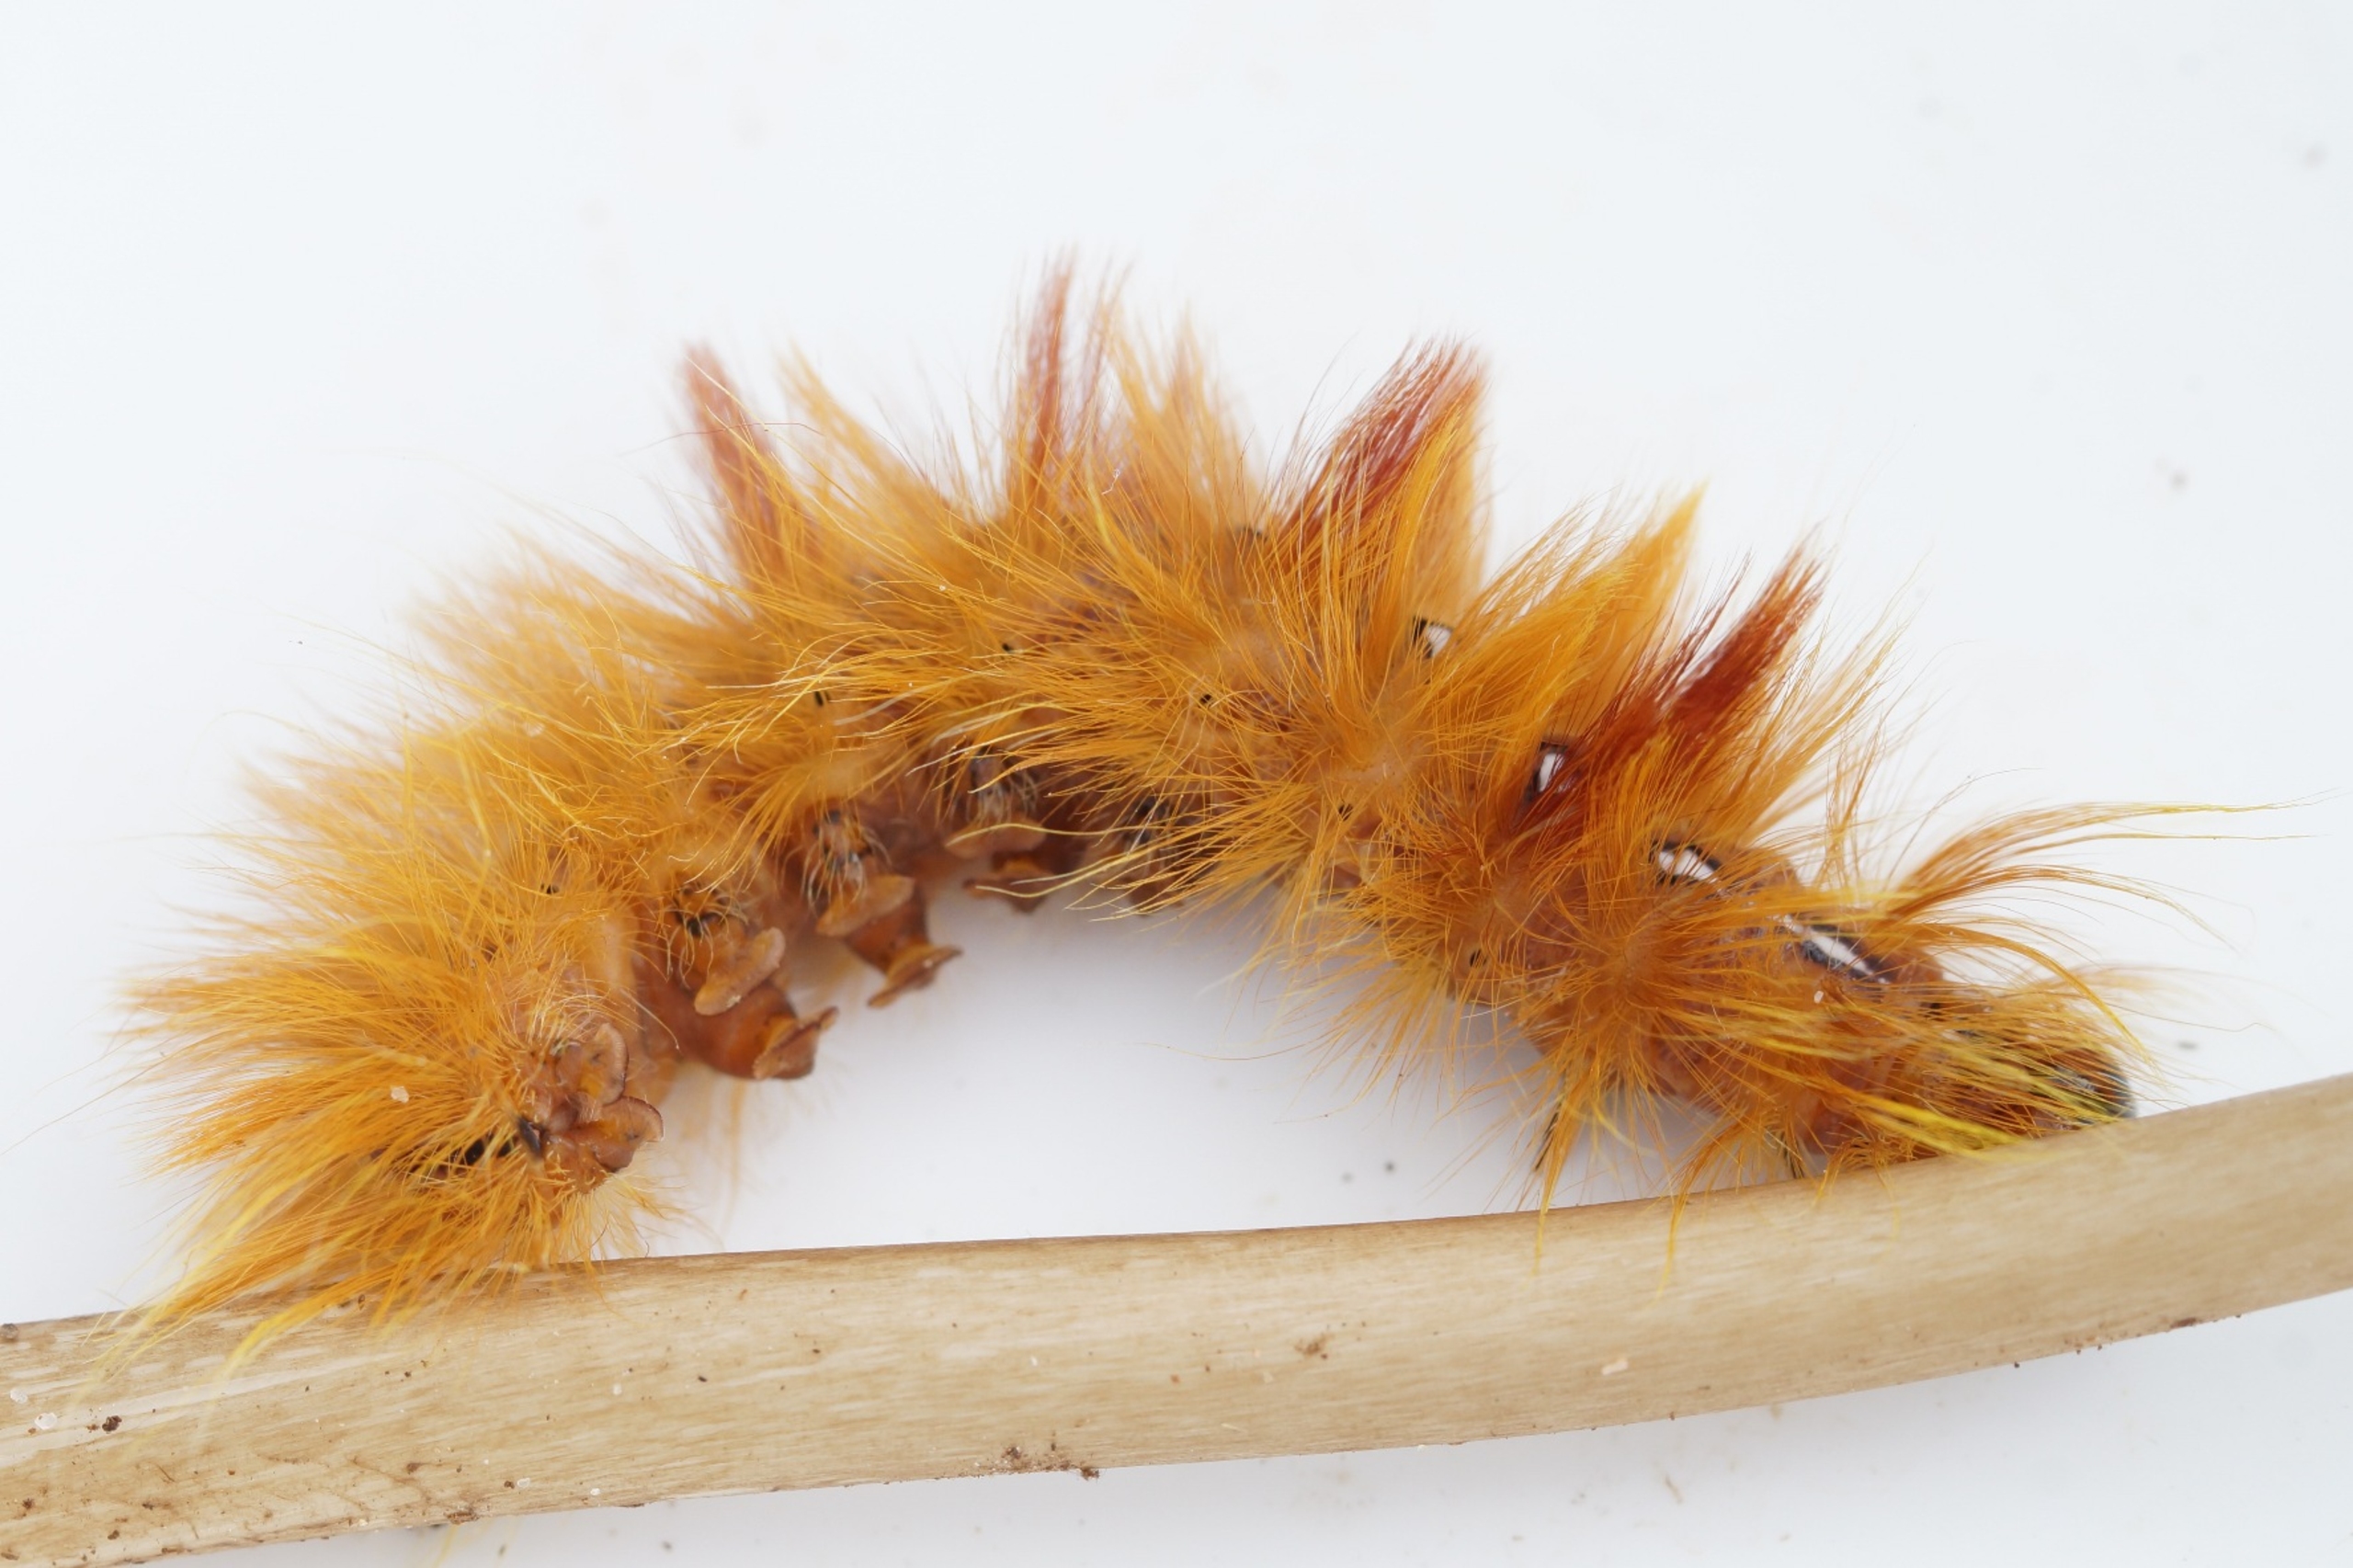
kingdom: Animalia
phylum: Arthropoda
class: Insecta
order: Lepidoptera
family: Noctuidae
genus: Acronicta
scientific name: Acronicta aceris
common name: Ahornugle
